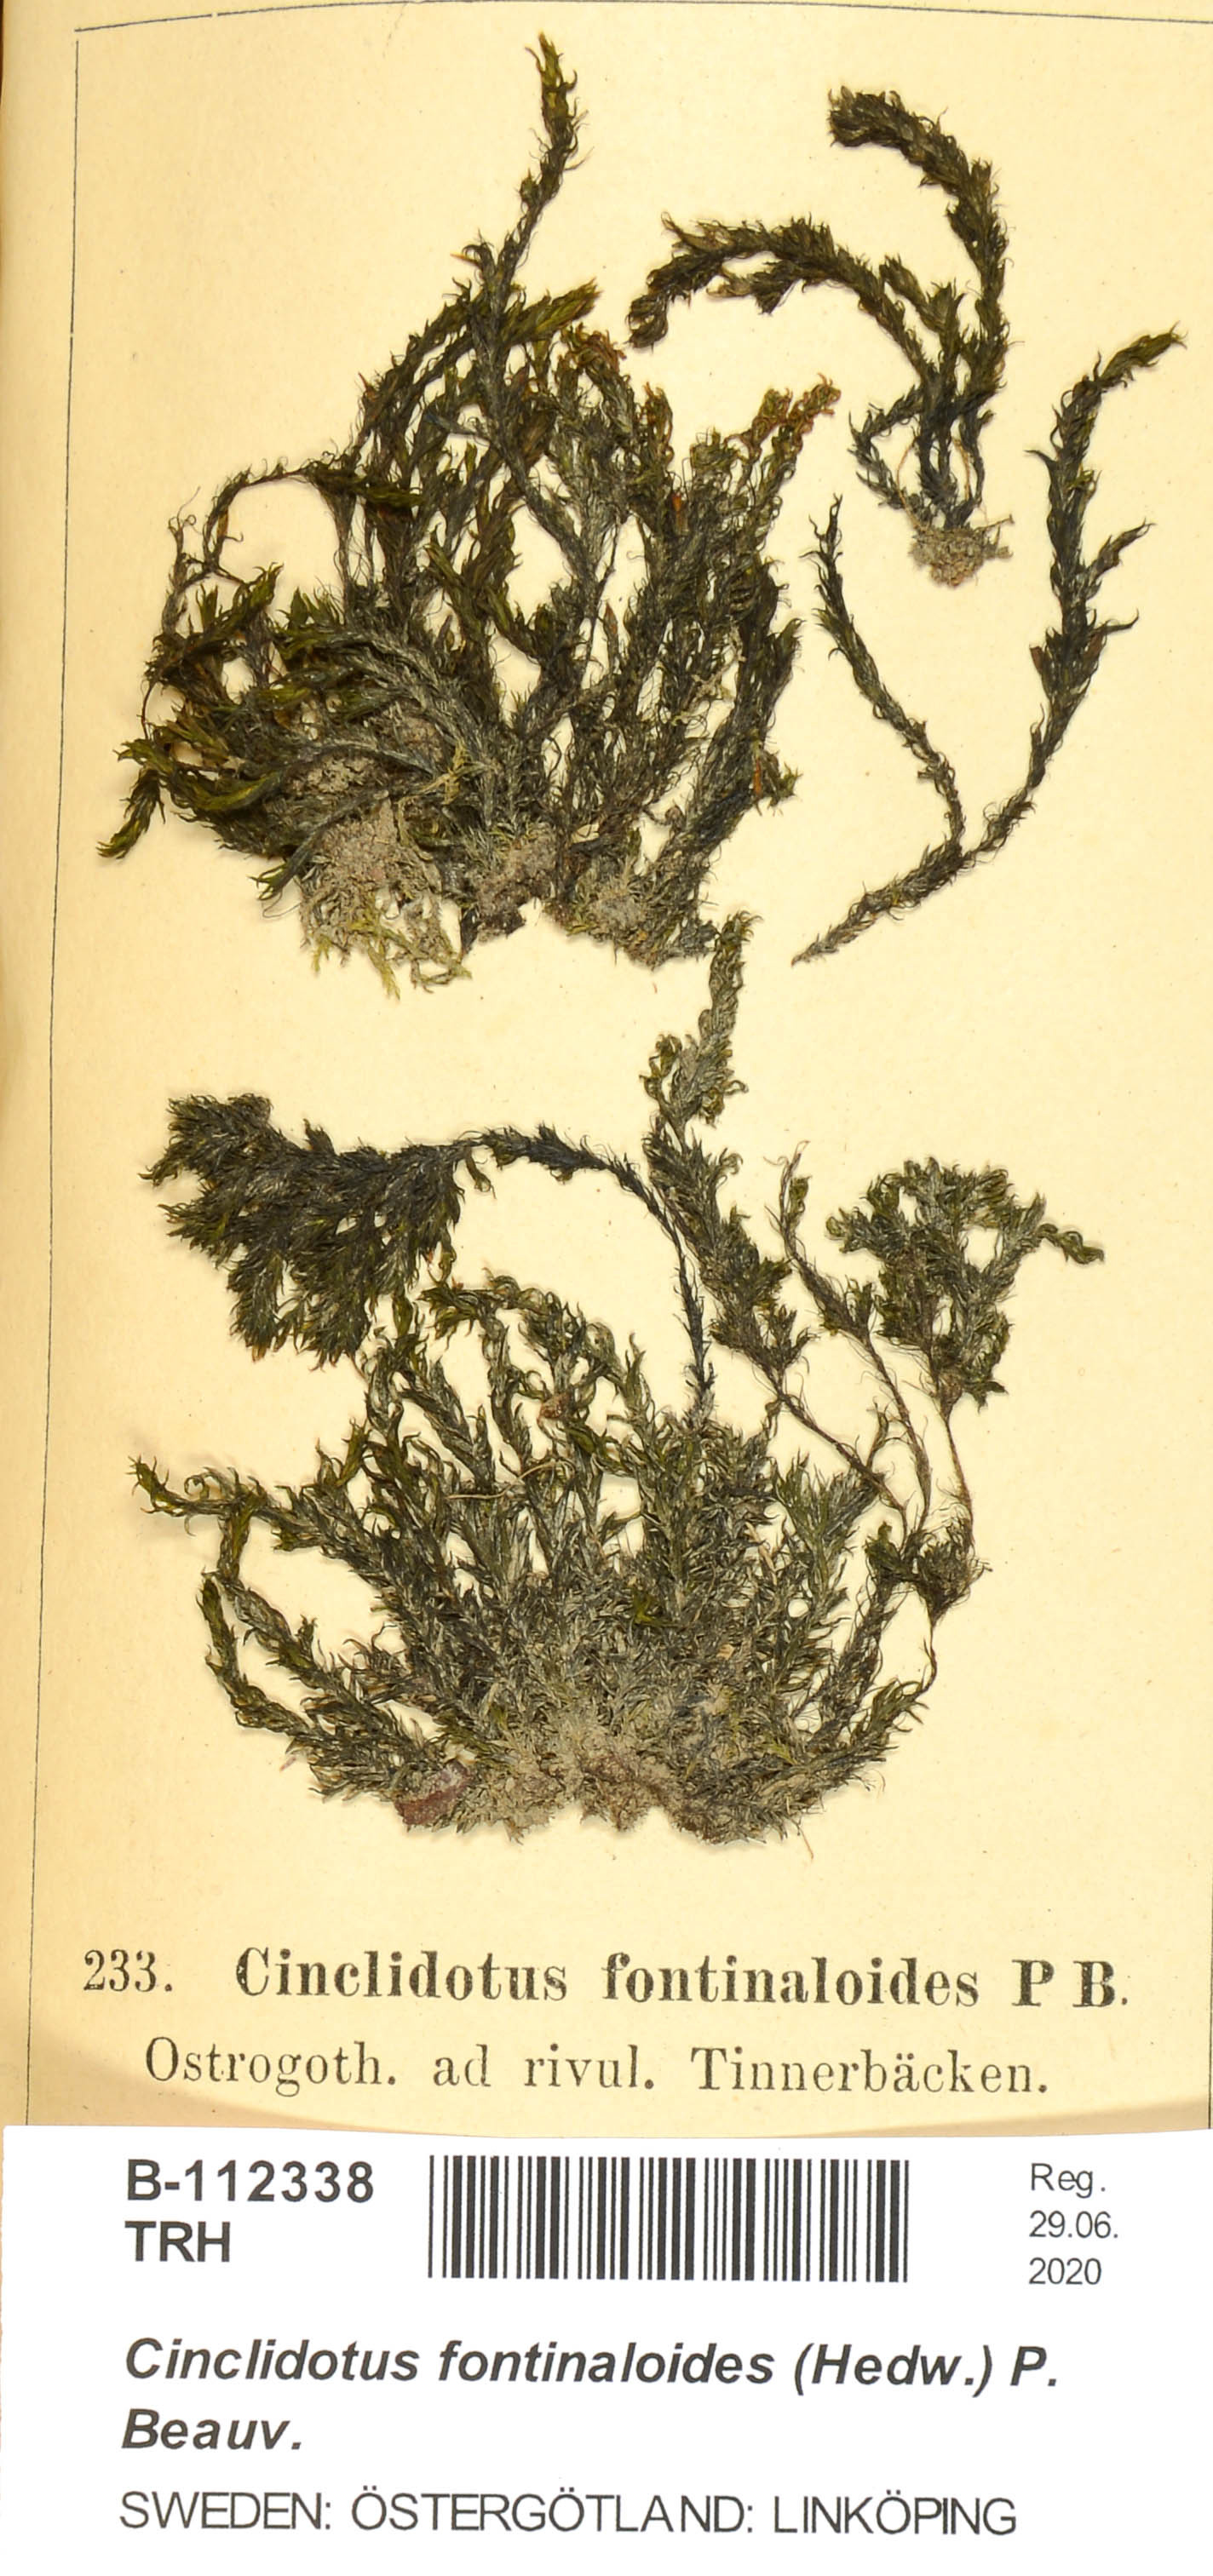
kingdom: Plantae
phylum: Bryophyta
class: Bryopsida
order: Pottiales
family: Pottiaceae
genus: Cinclidotus
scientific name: Cinclidotus fontinaloides
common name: Smaller lattice-moss
